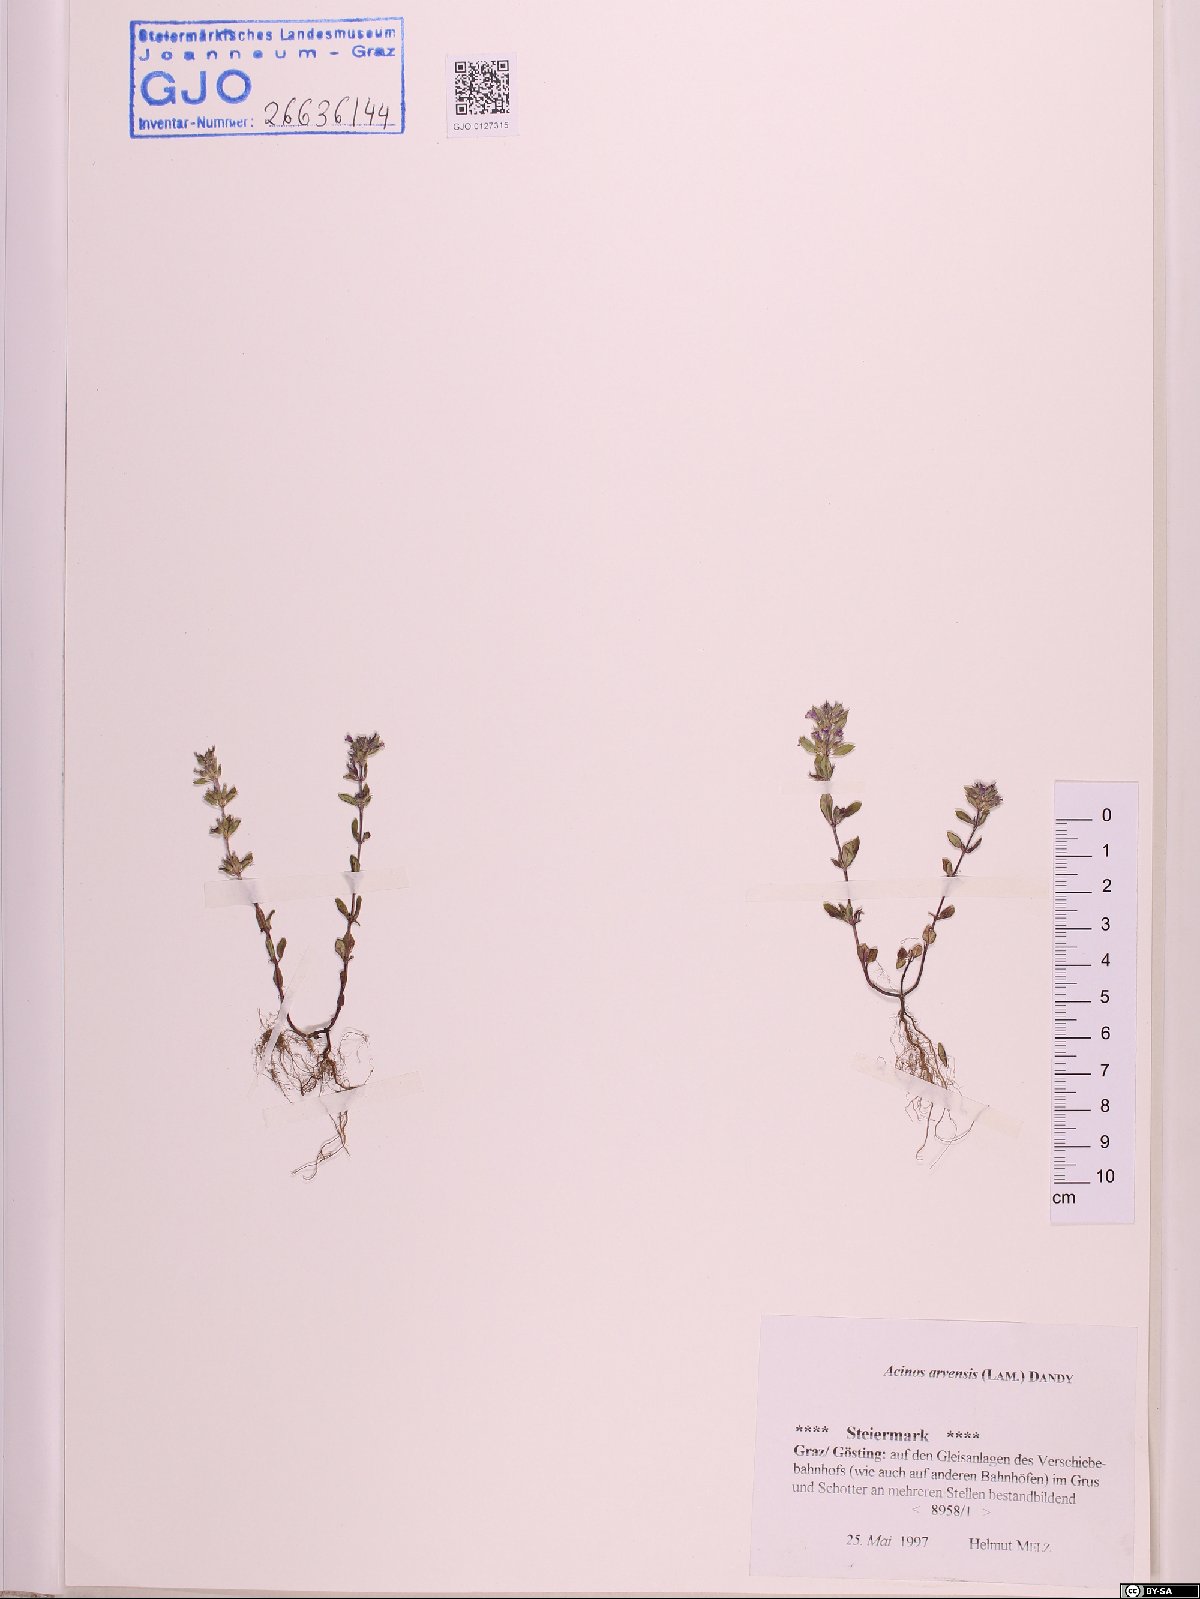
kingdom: Plantae
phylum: Tracheophyta
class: Magnoliopsida
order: Lamiales
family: Lamiaceae
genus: Clinopodium
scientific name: Clinopodium acinos
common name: Basil thyme
